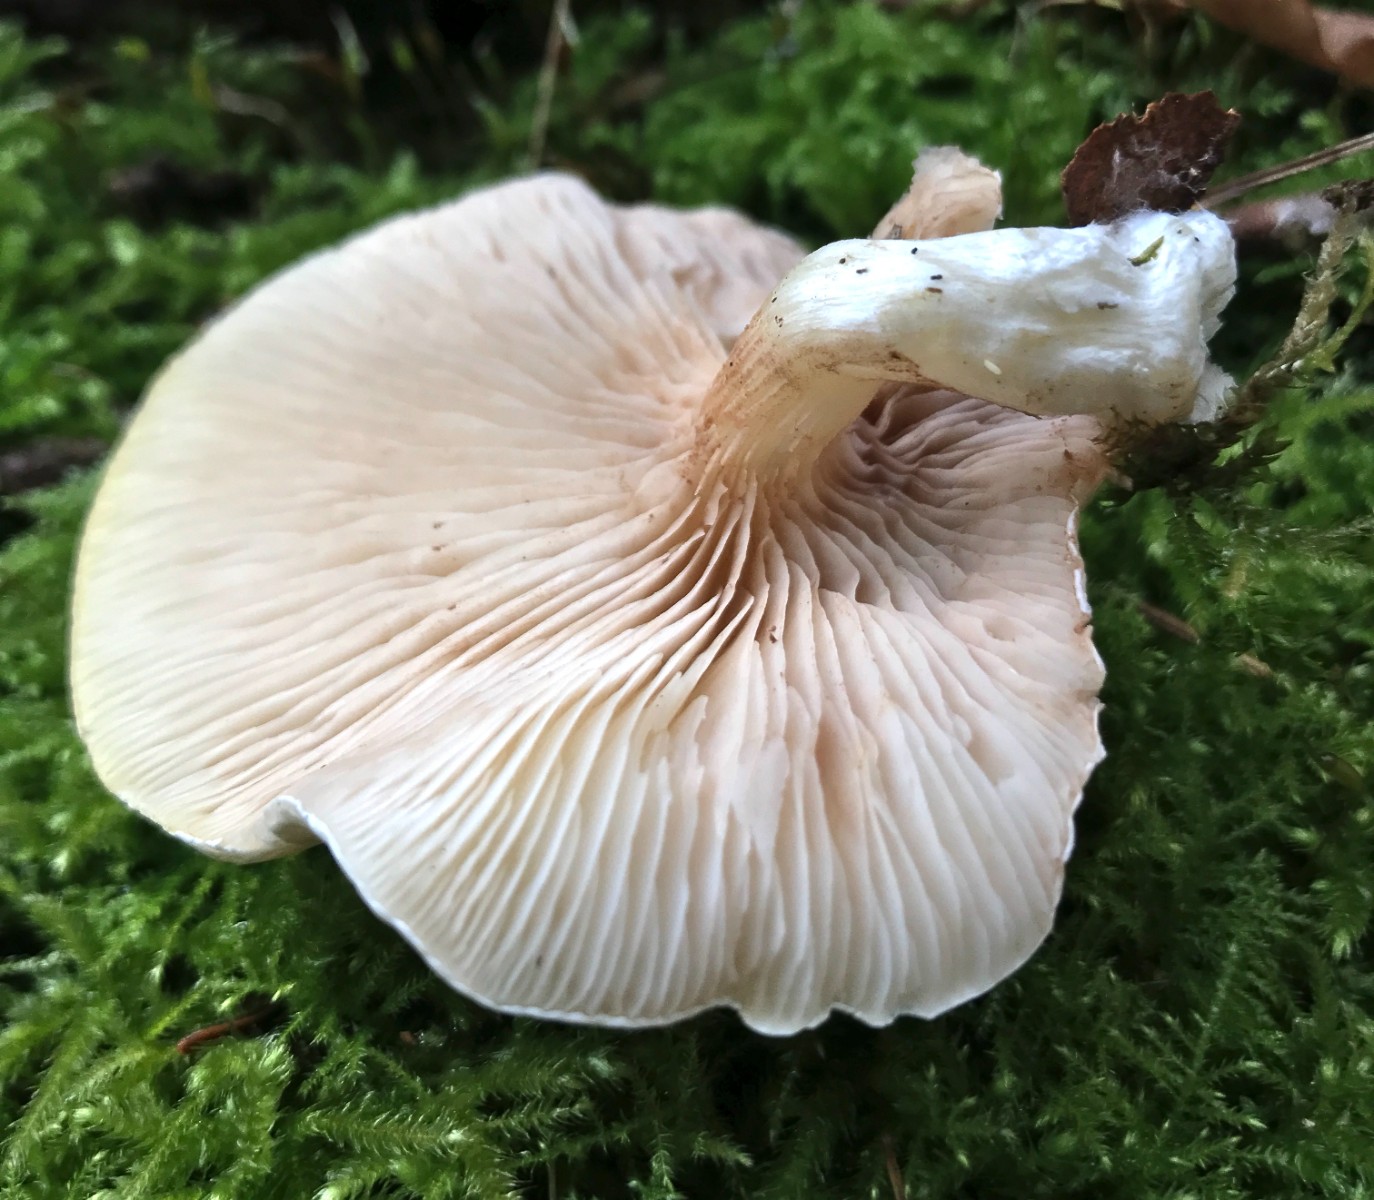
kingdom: Fungi
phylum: Basidiomycota
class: Agaricomycetes
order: Agaricales
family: Entolomataceae
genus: Clitopilus
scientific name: Clitopilus prunulus
